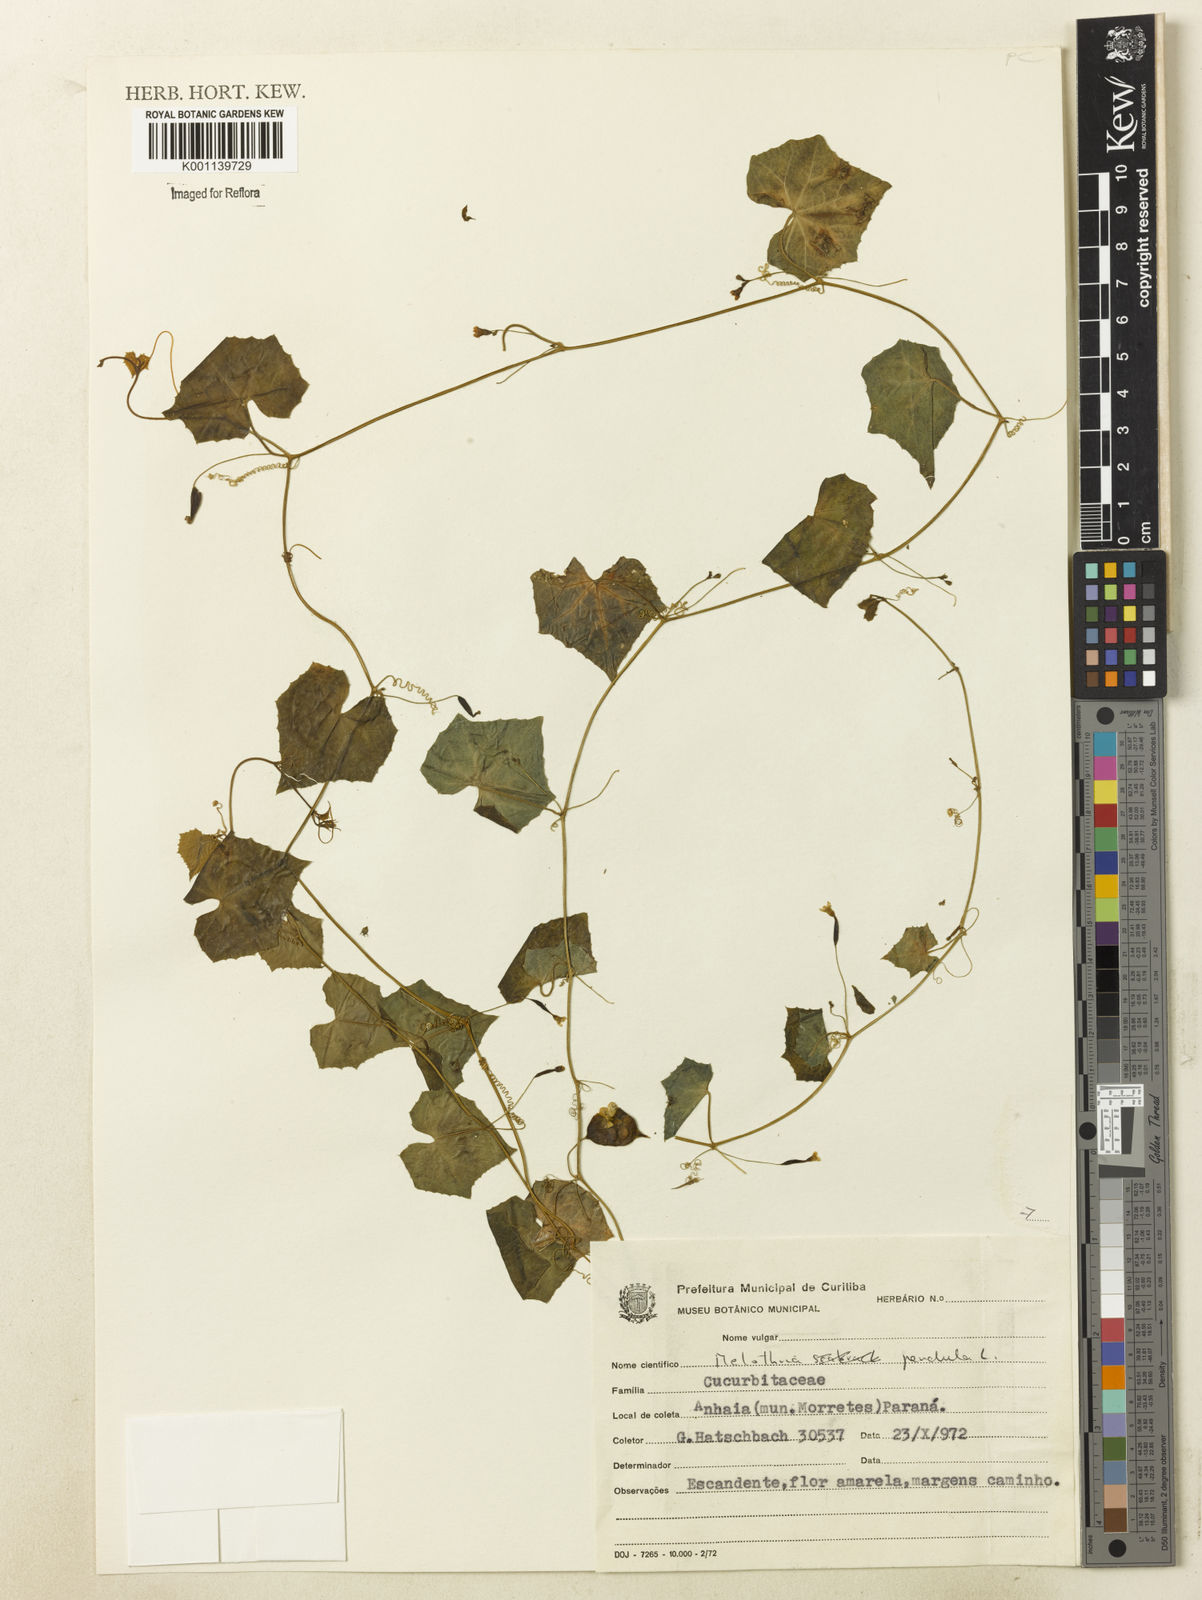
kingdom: Plantae
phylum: Tracheophyta
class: Magnoliopsida
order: Cucurbitales
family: Cucurbitaceae
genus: Melothria
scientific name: Melothria pendula
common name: Creeping-cucumber
